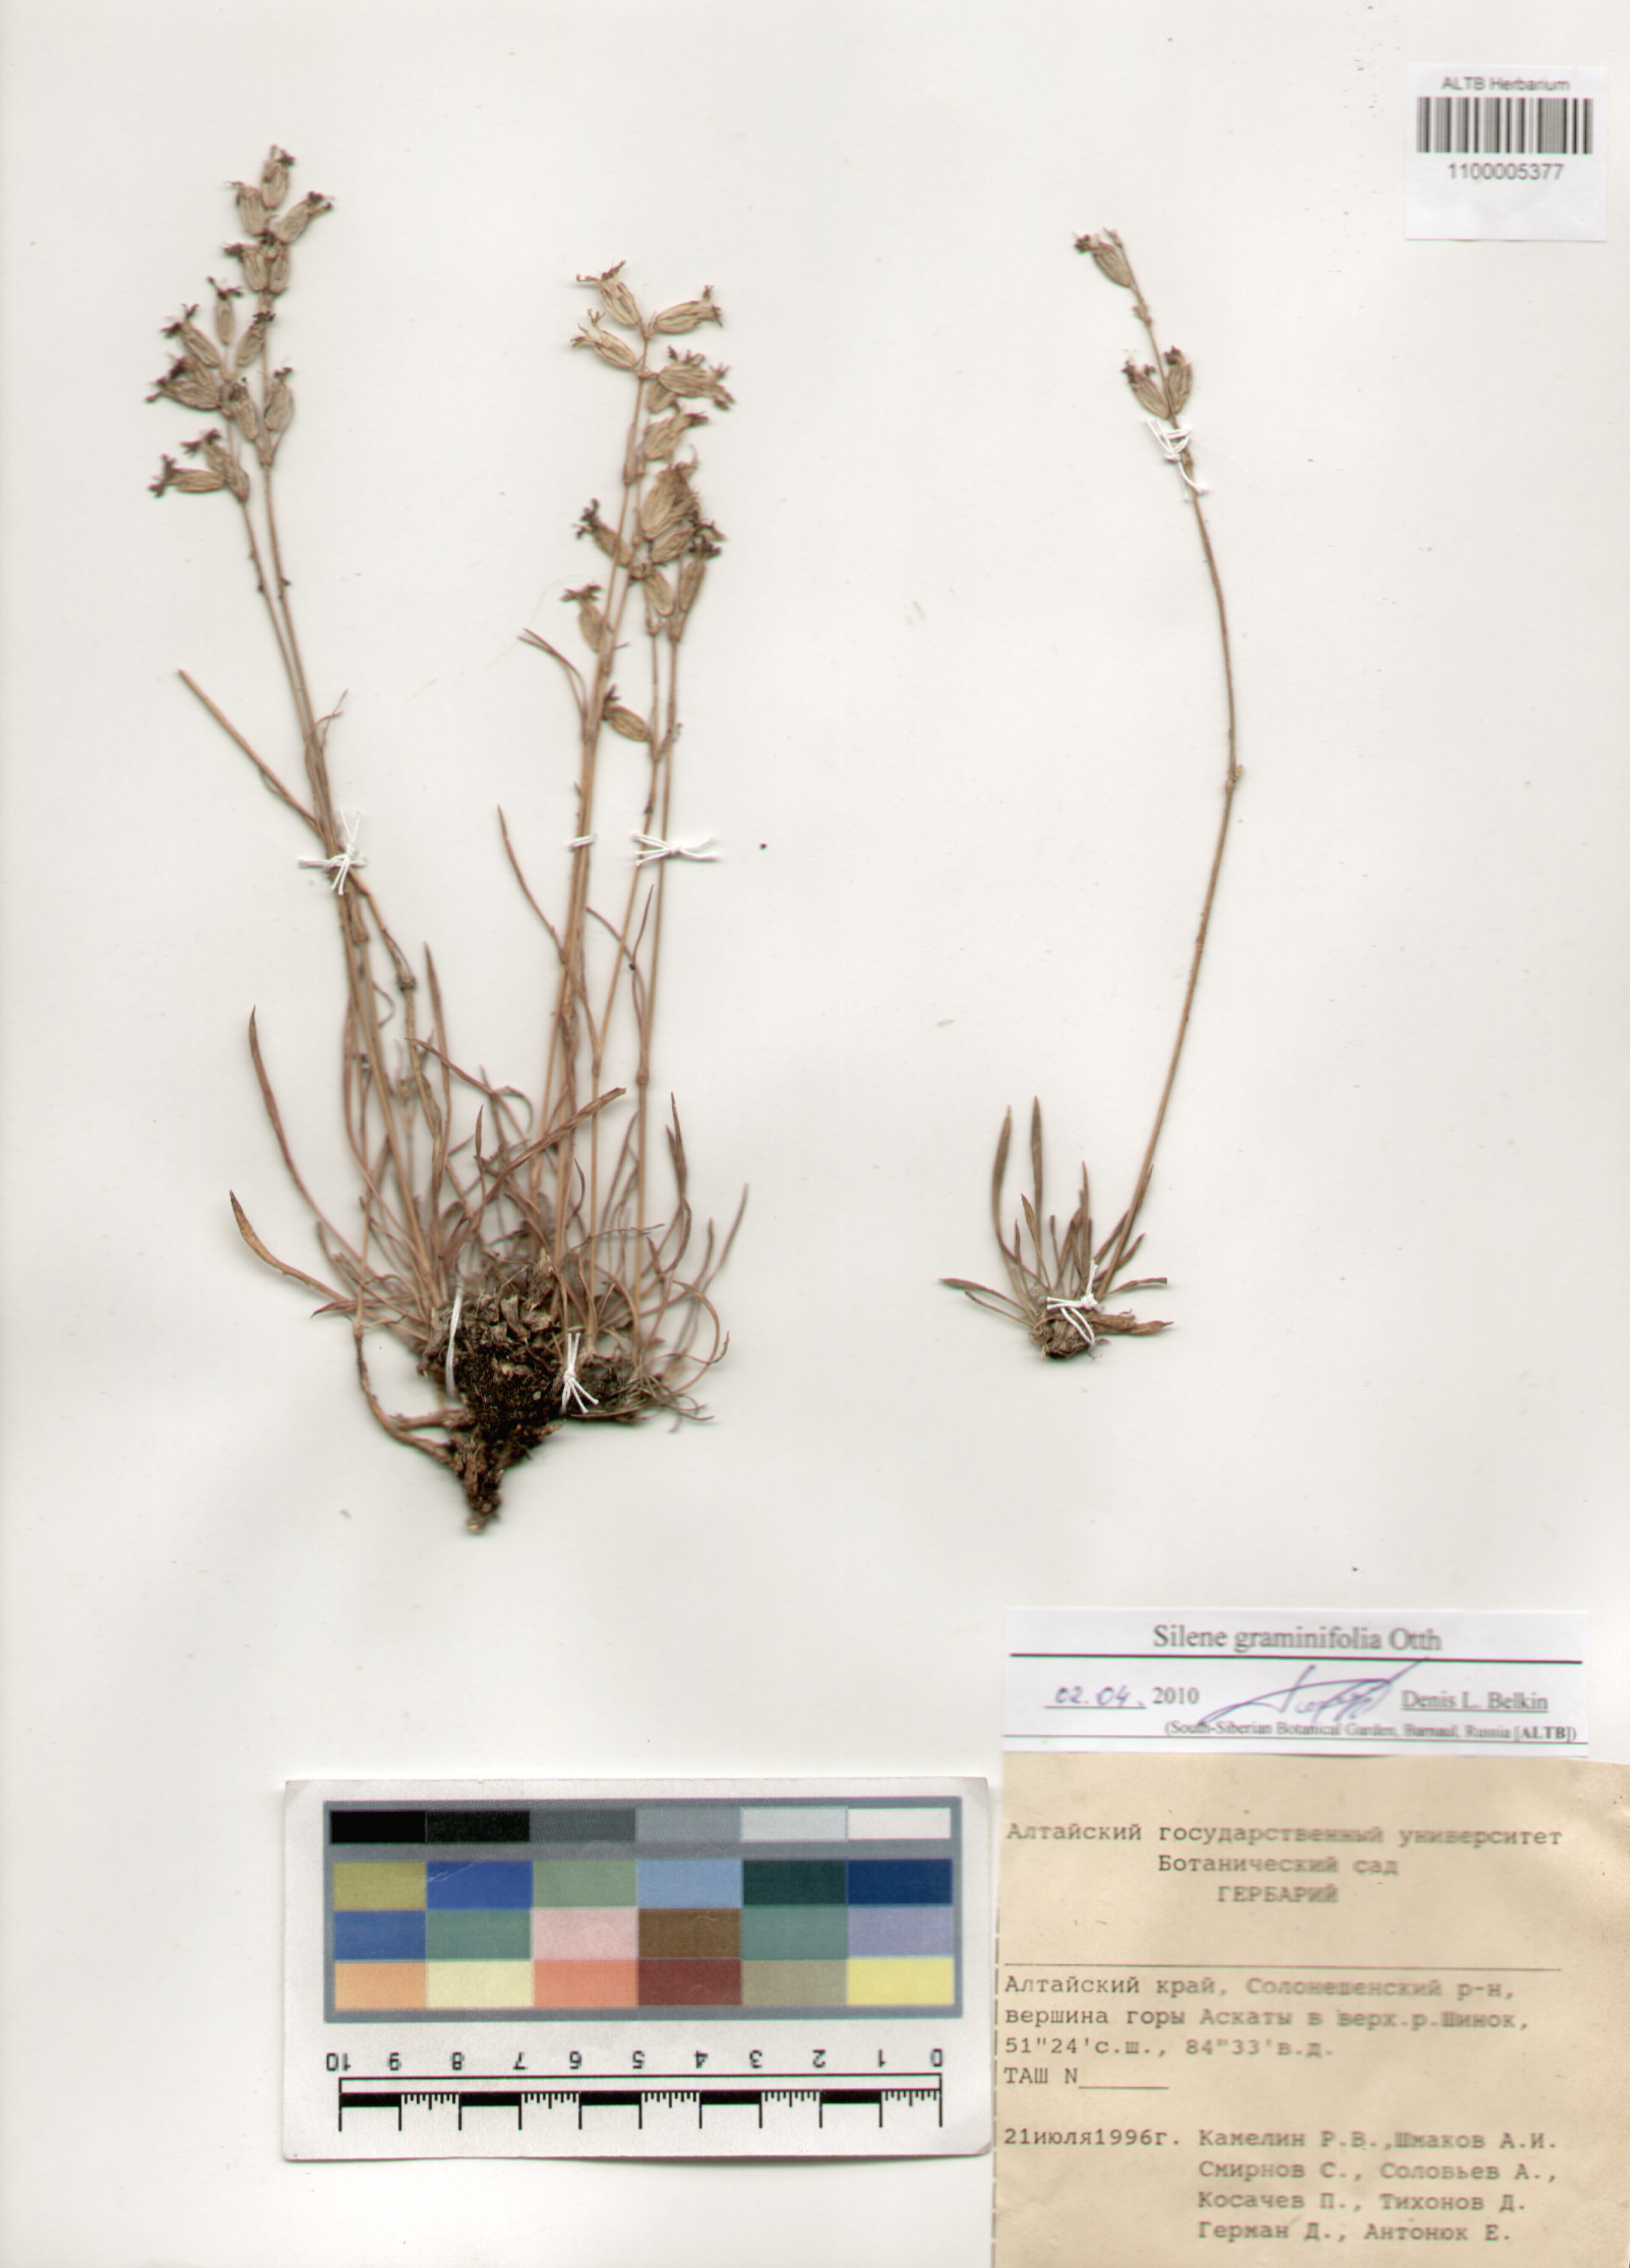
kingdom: Plantae
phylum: Tracheophyta
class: Magnoliopsida
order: Caryophyllales
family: Caryophyllaceae
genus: Silene
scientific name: Silene graminifolia
